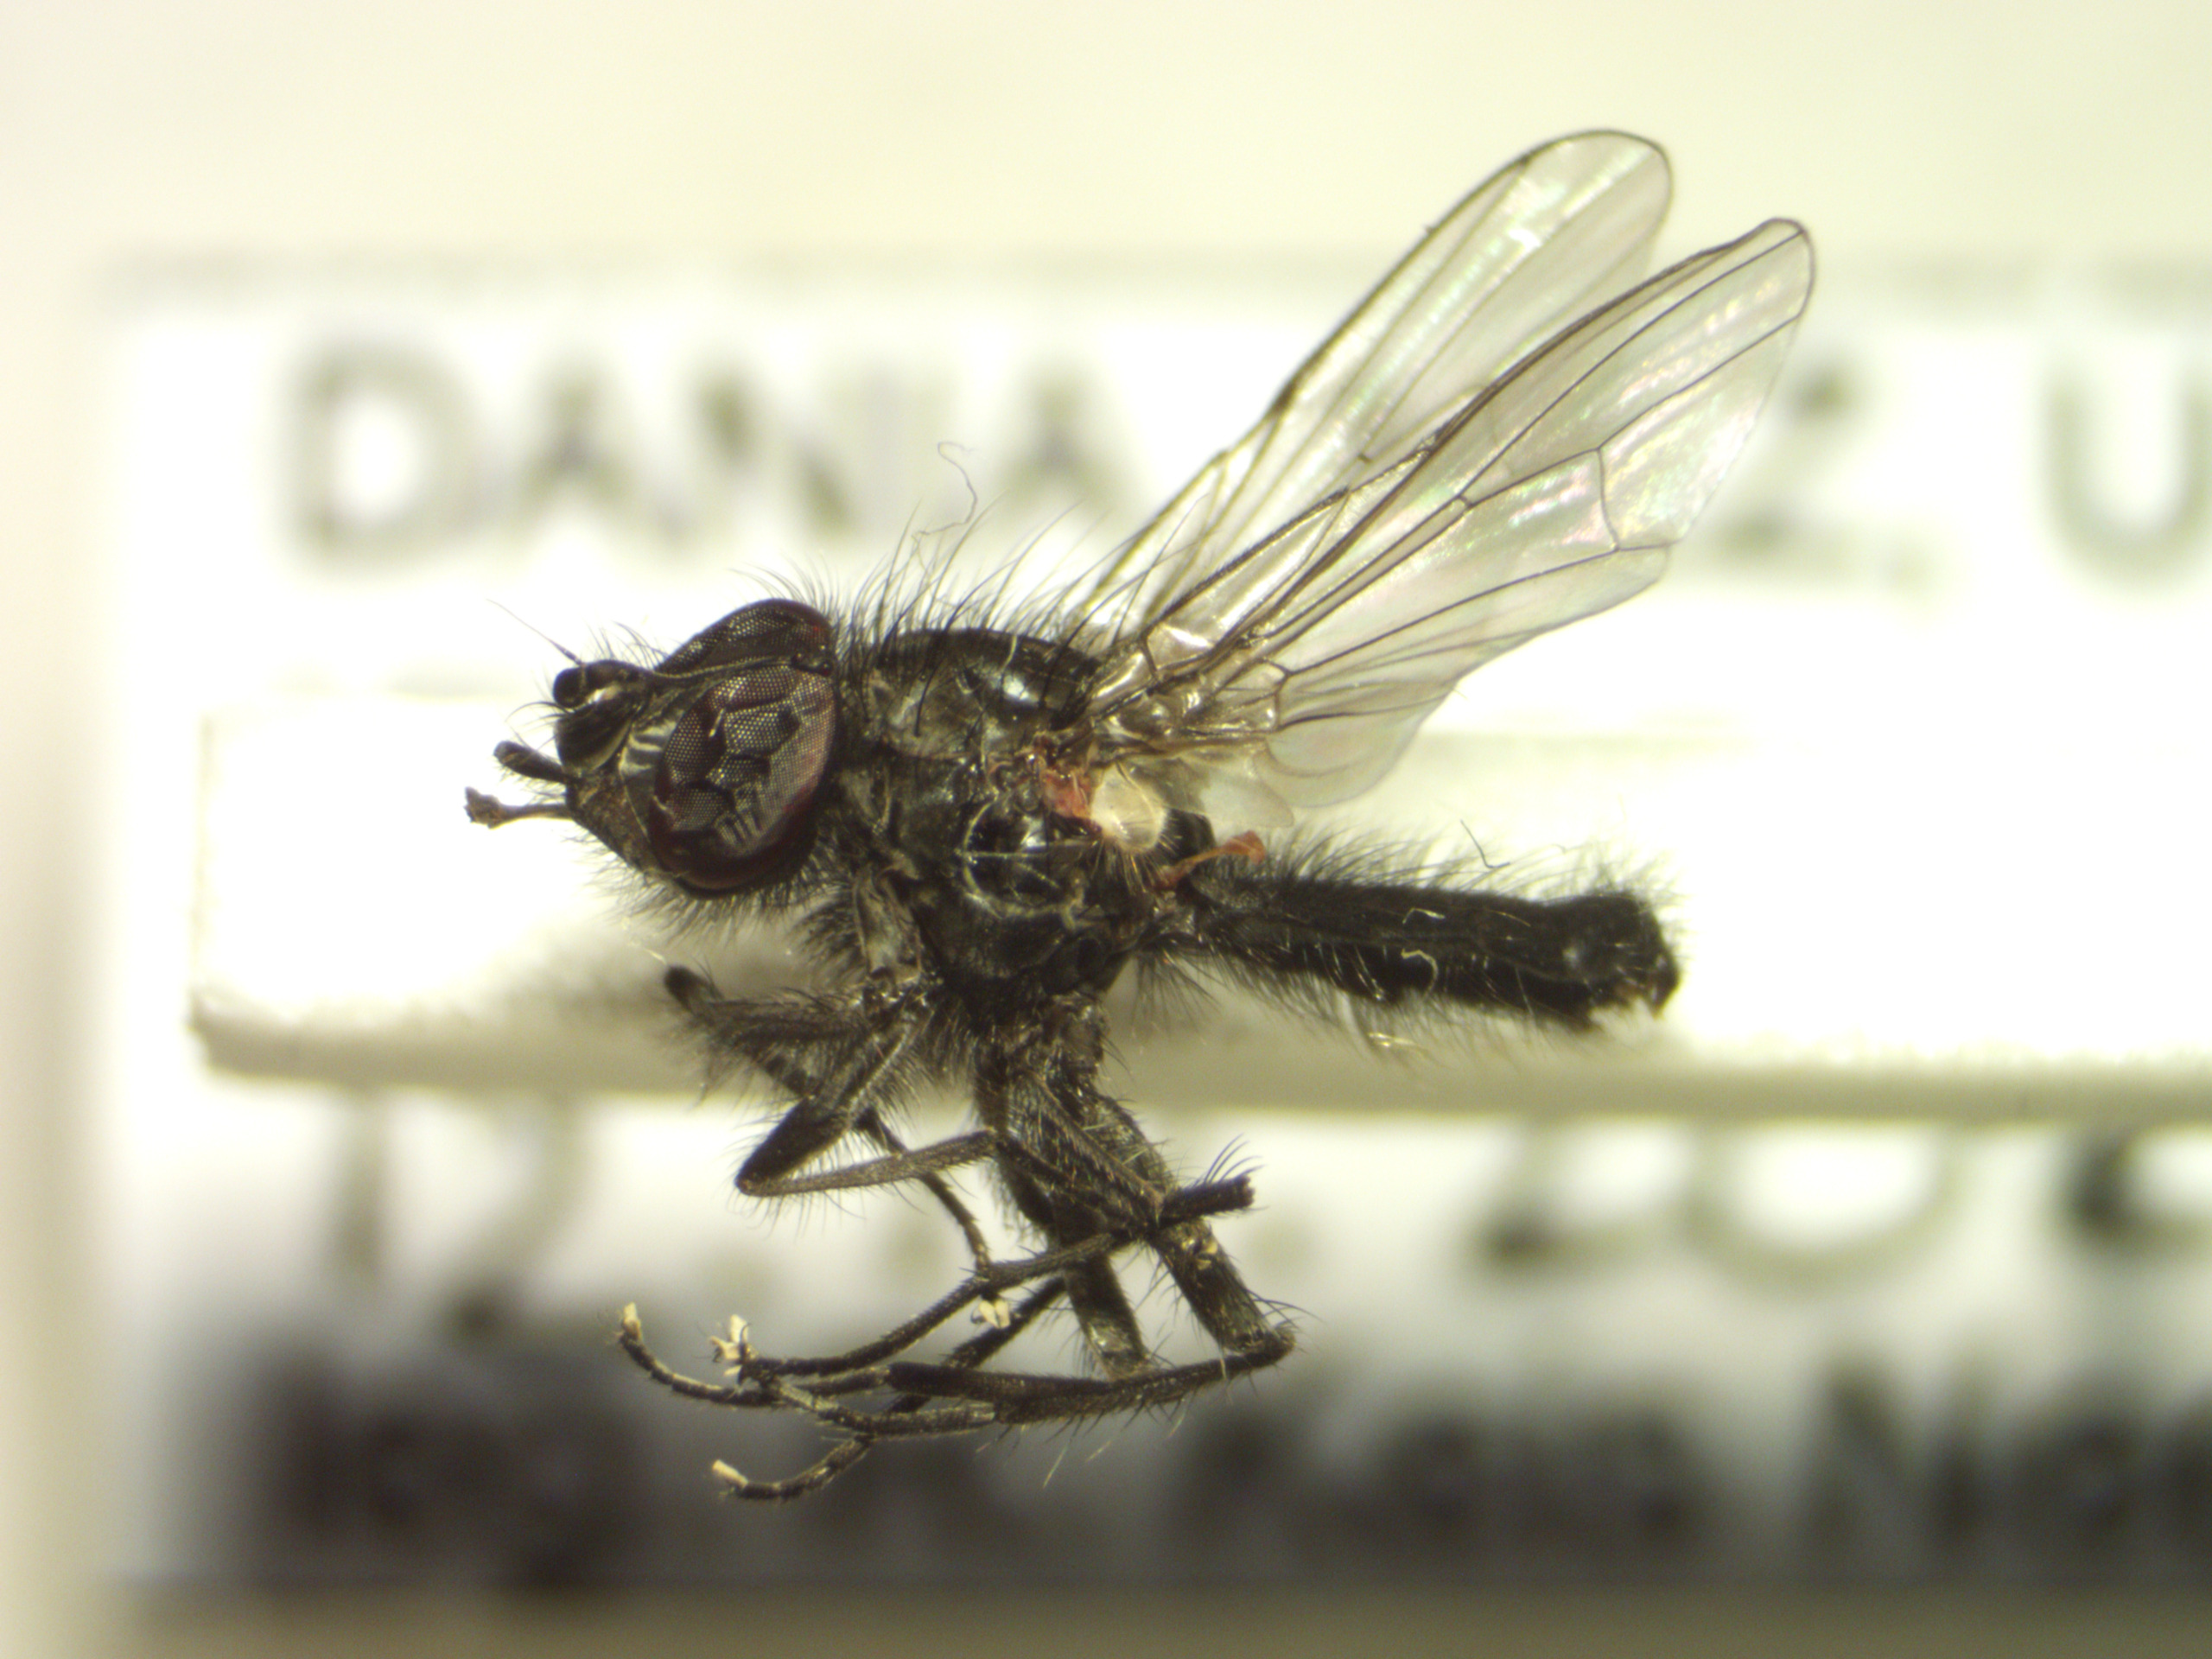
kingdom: Animalia
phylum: Arthropoda
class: Insecta
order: Diptera
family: Anthomyiidae
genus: Egle
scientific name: Egle ciliata
